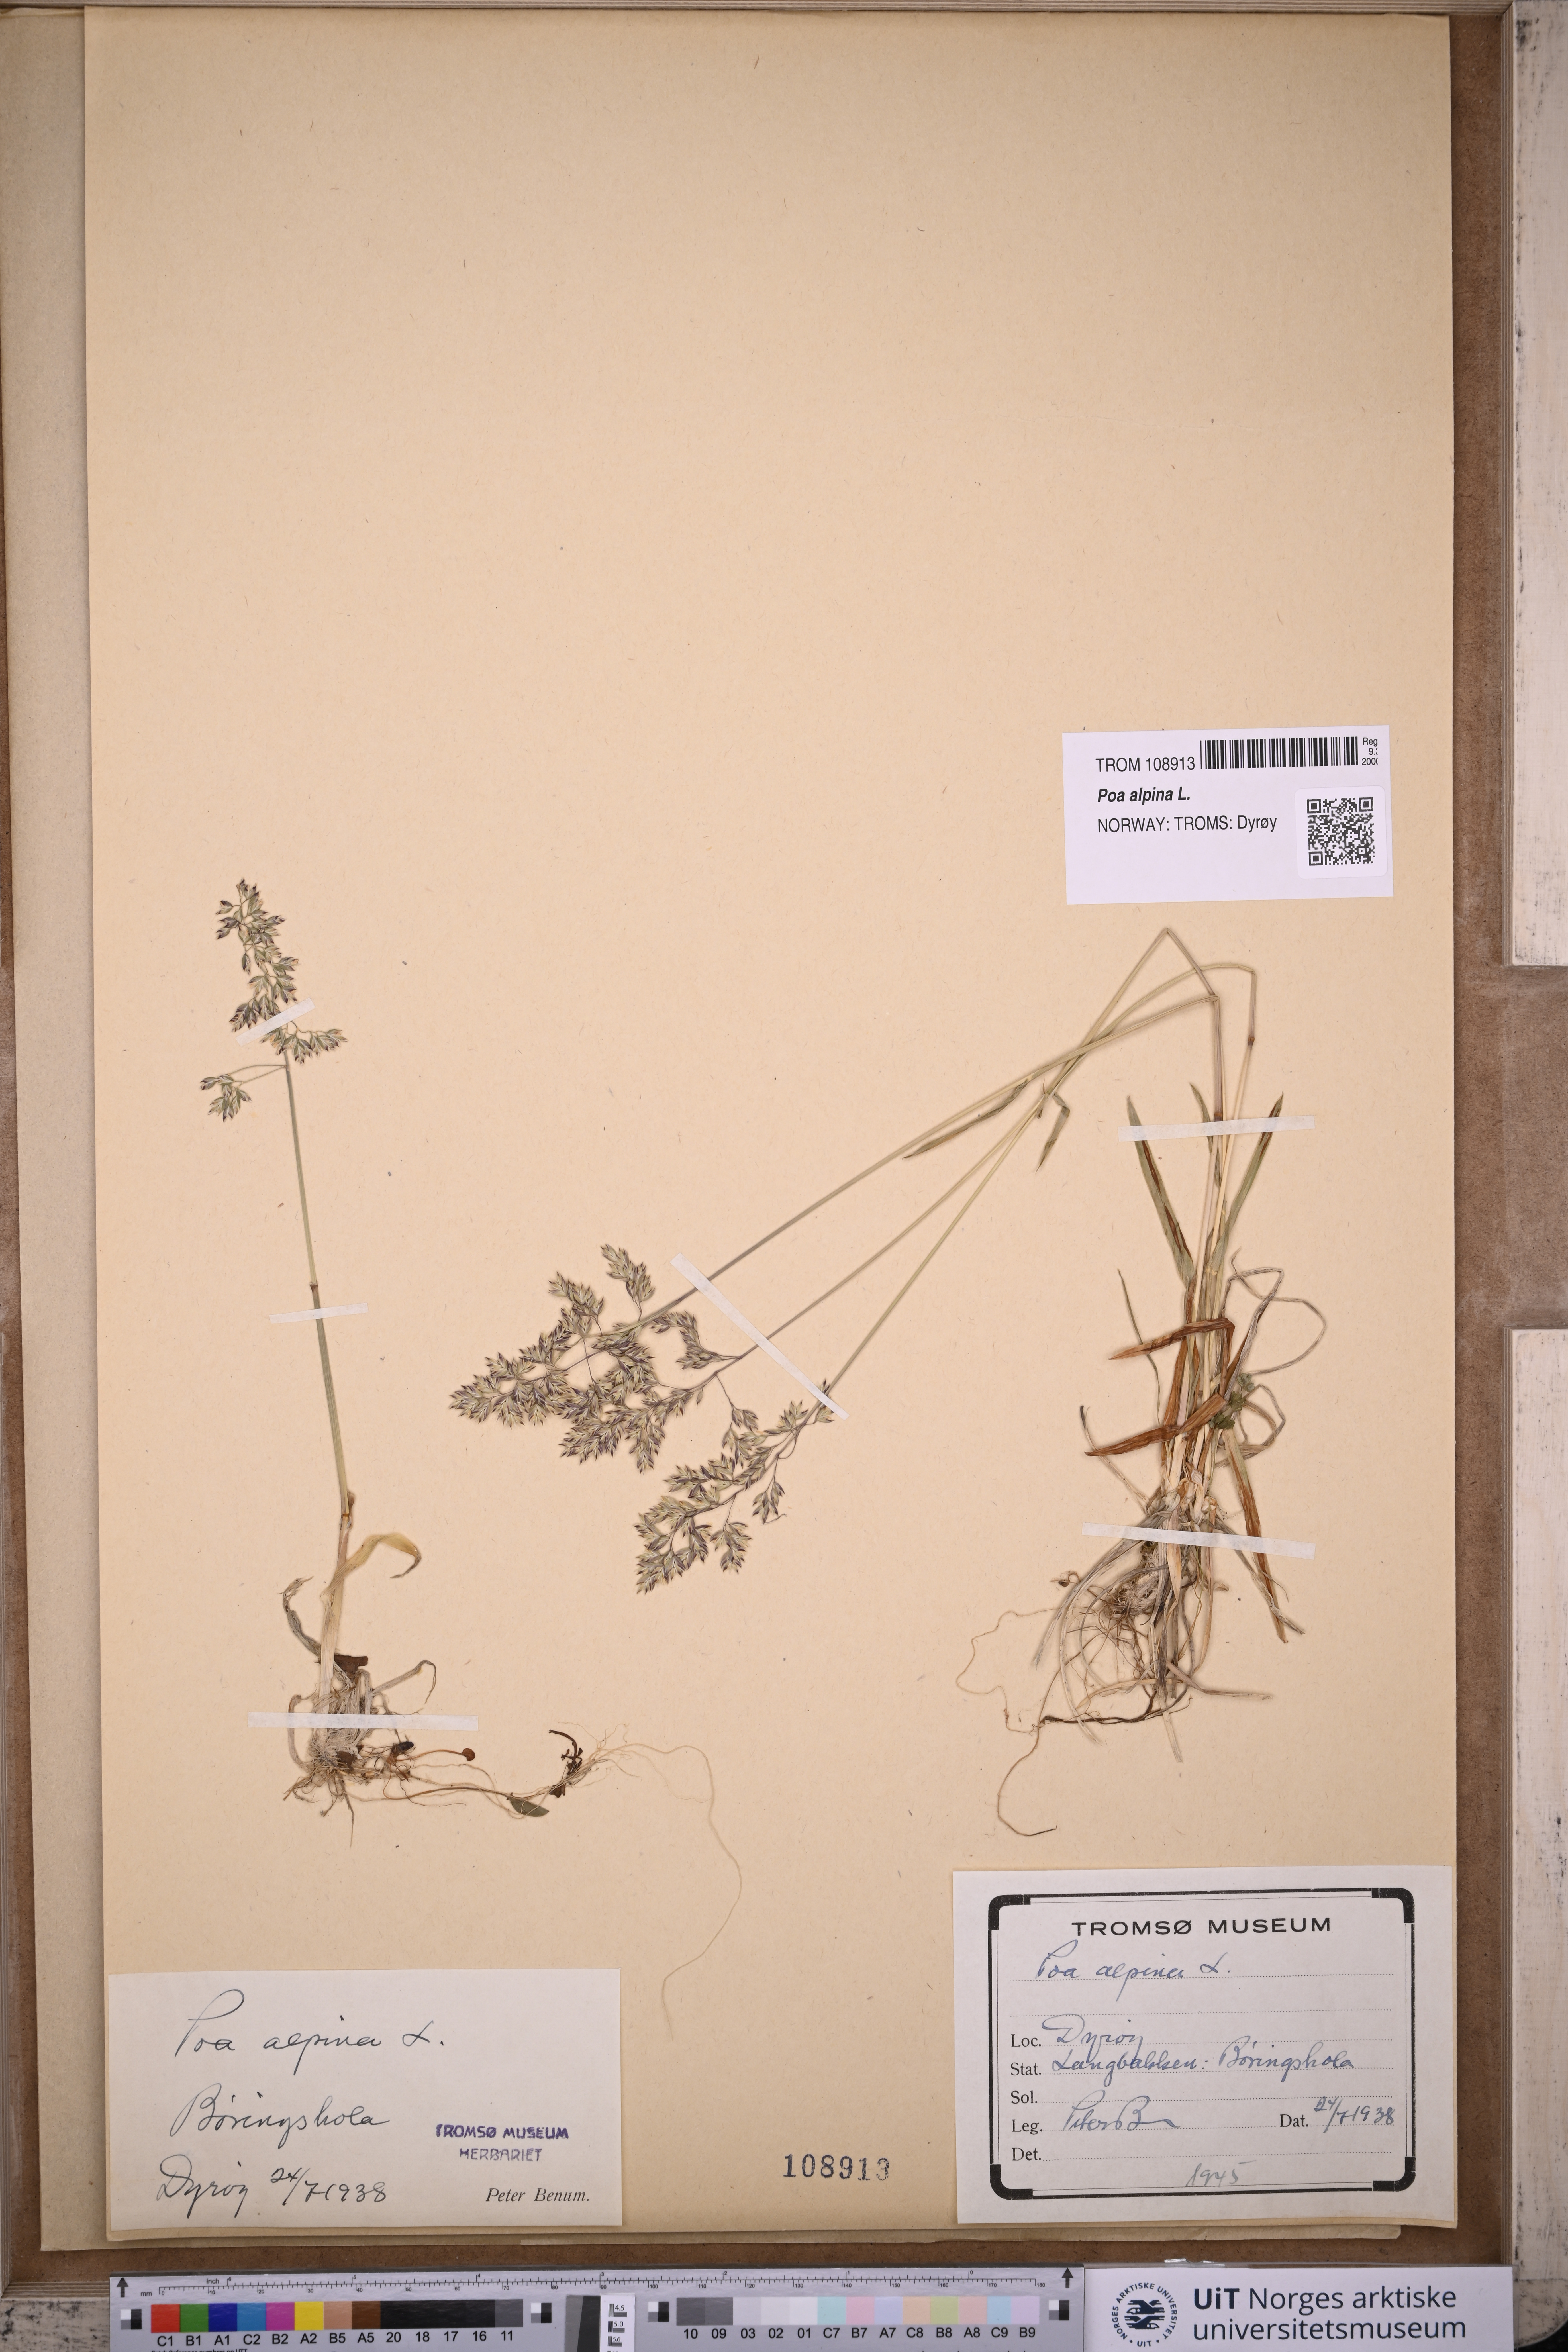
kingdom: Plantae
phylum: Tracheophyta
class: Liliopsida
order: Poales
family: Poaceae
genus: Poa
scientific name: Poa alpina
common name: Alpine bluegrass
